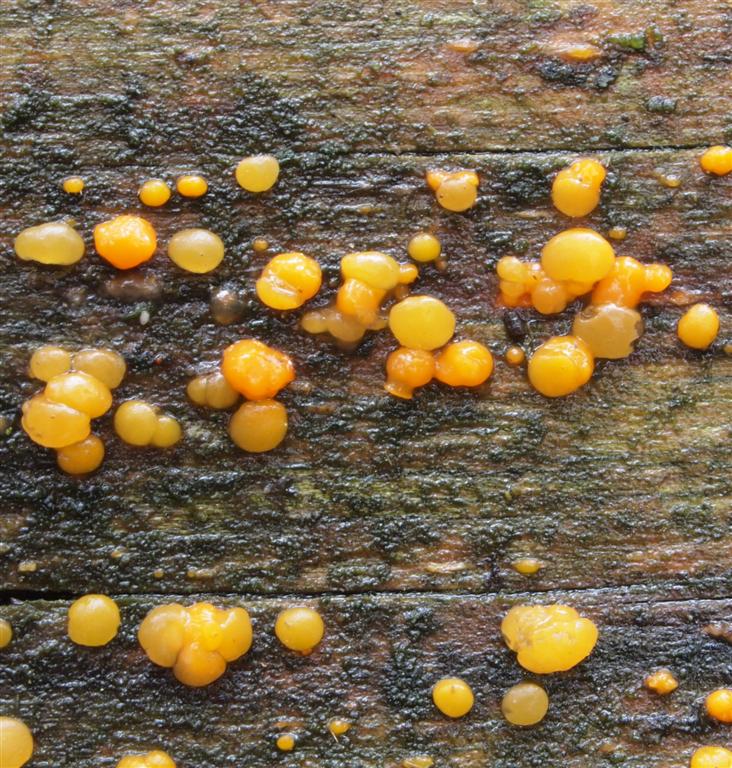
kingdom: Fungi
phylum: Basidiomycota
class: Dacrymycetes
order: Dacrymycetales
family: Dacrymycetaceae
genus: Dacrymyces
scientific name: Dacrymyces stillatus
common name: almindelig tåresvamp
